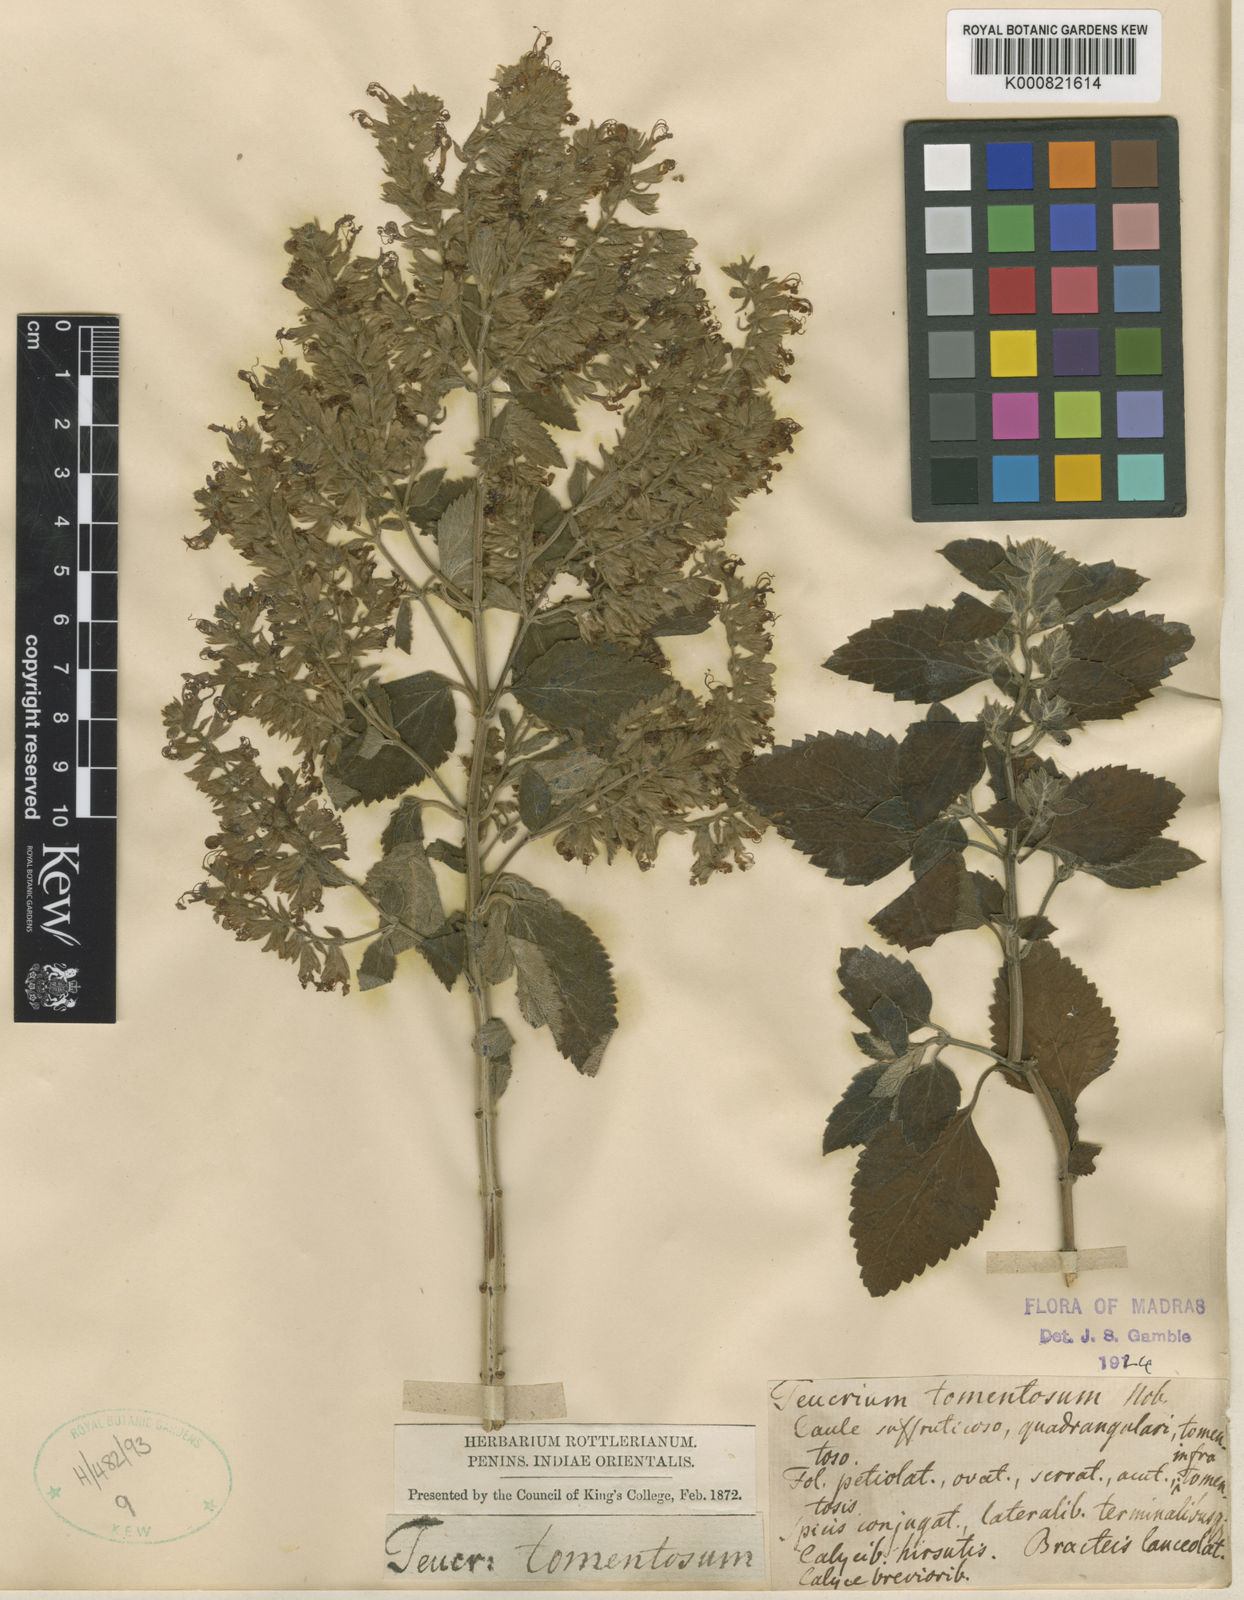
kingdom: Plantae
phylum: Tracheophyta
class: Magnoliopsida
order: Lamiales
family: Lamiaceae
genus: Teucrium
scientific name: Teucrium heynei
